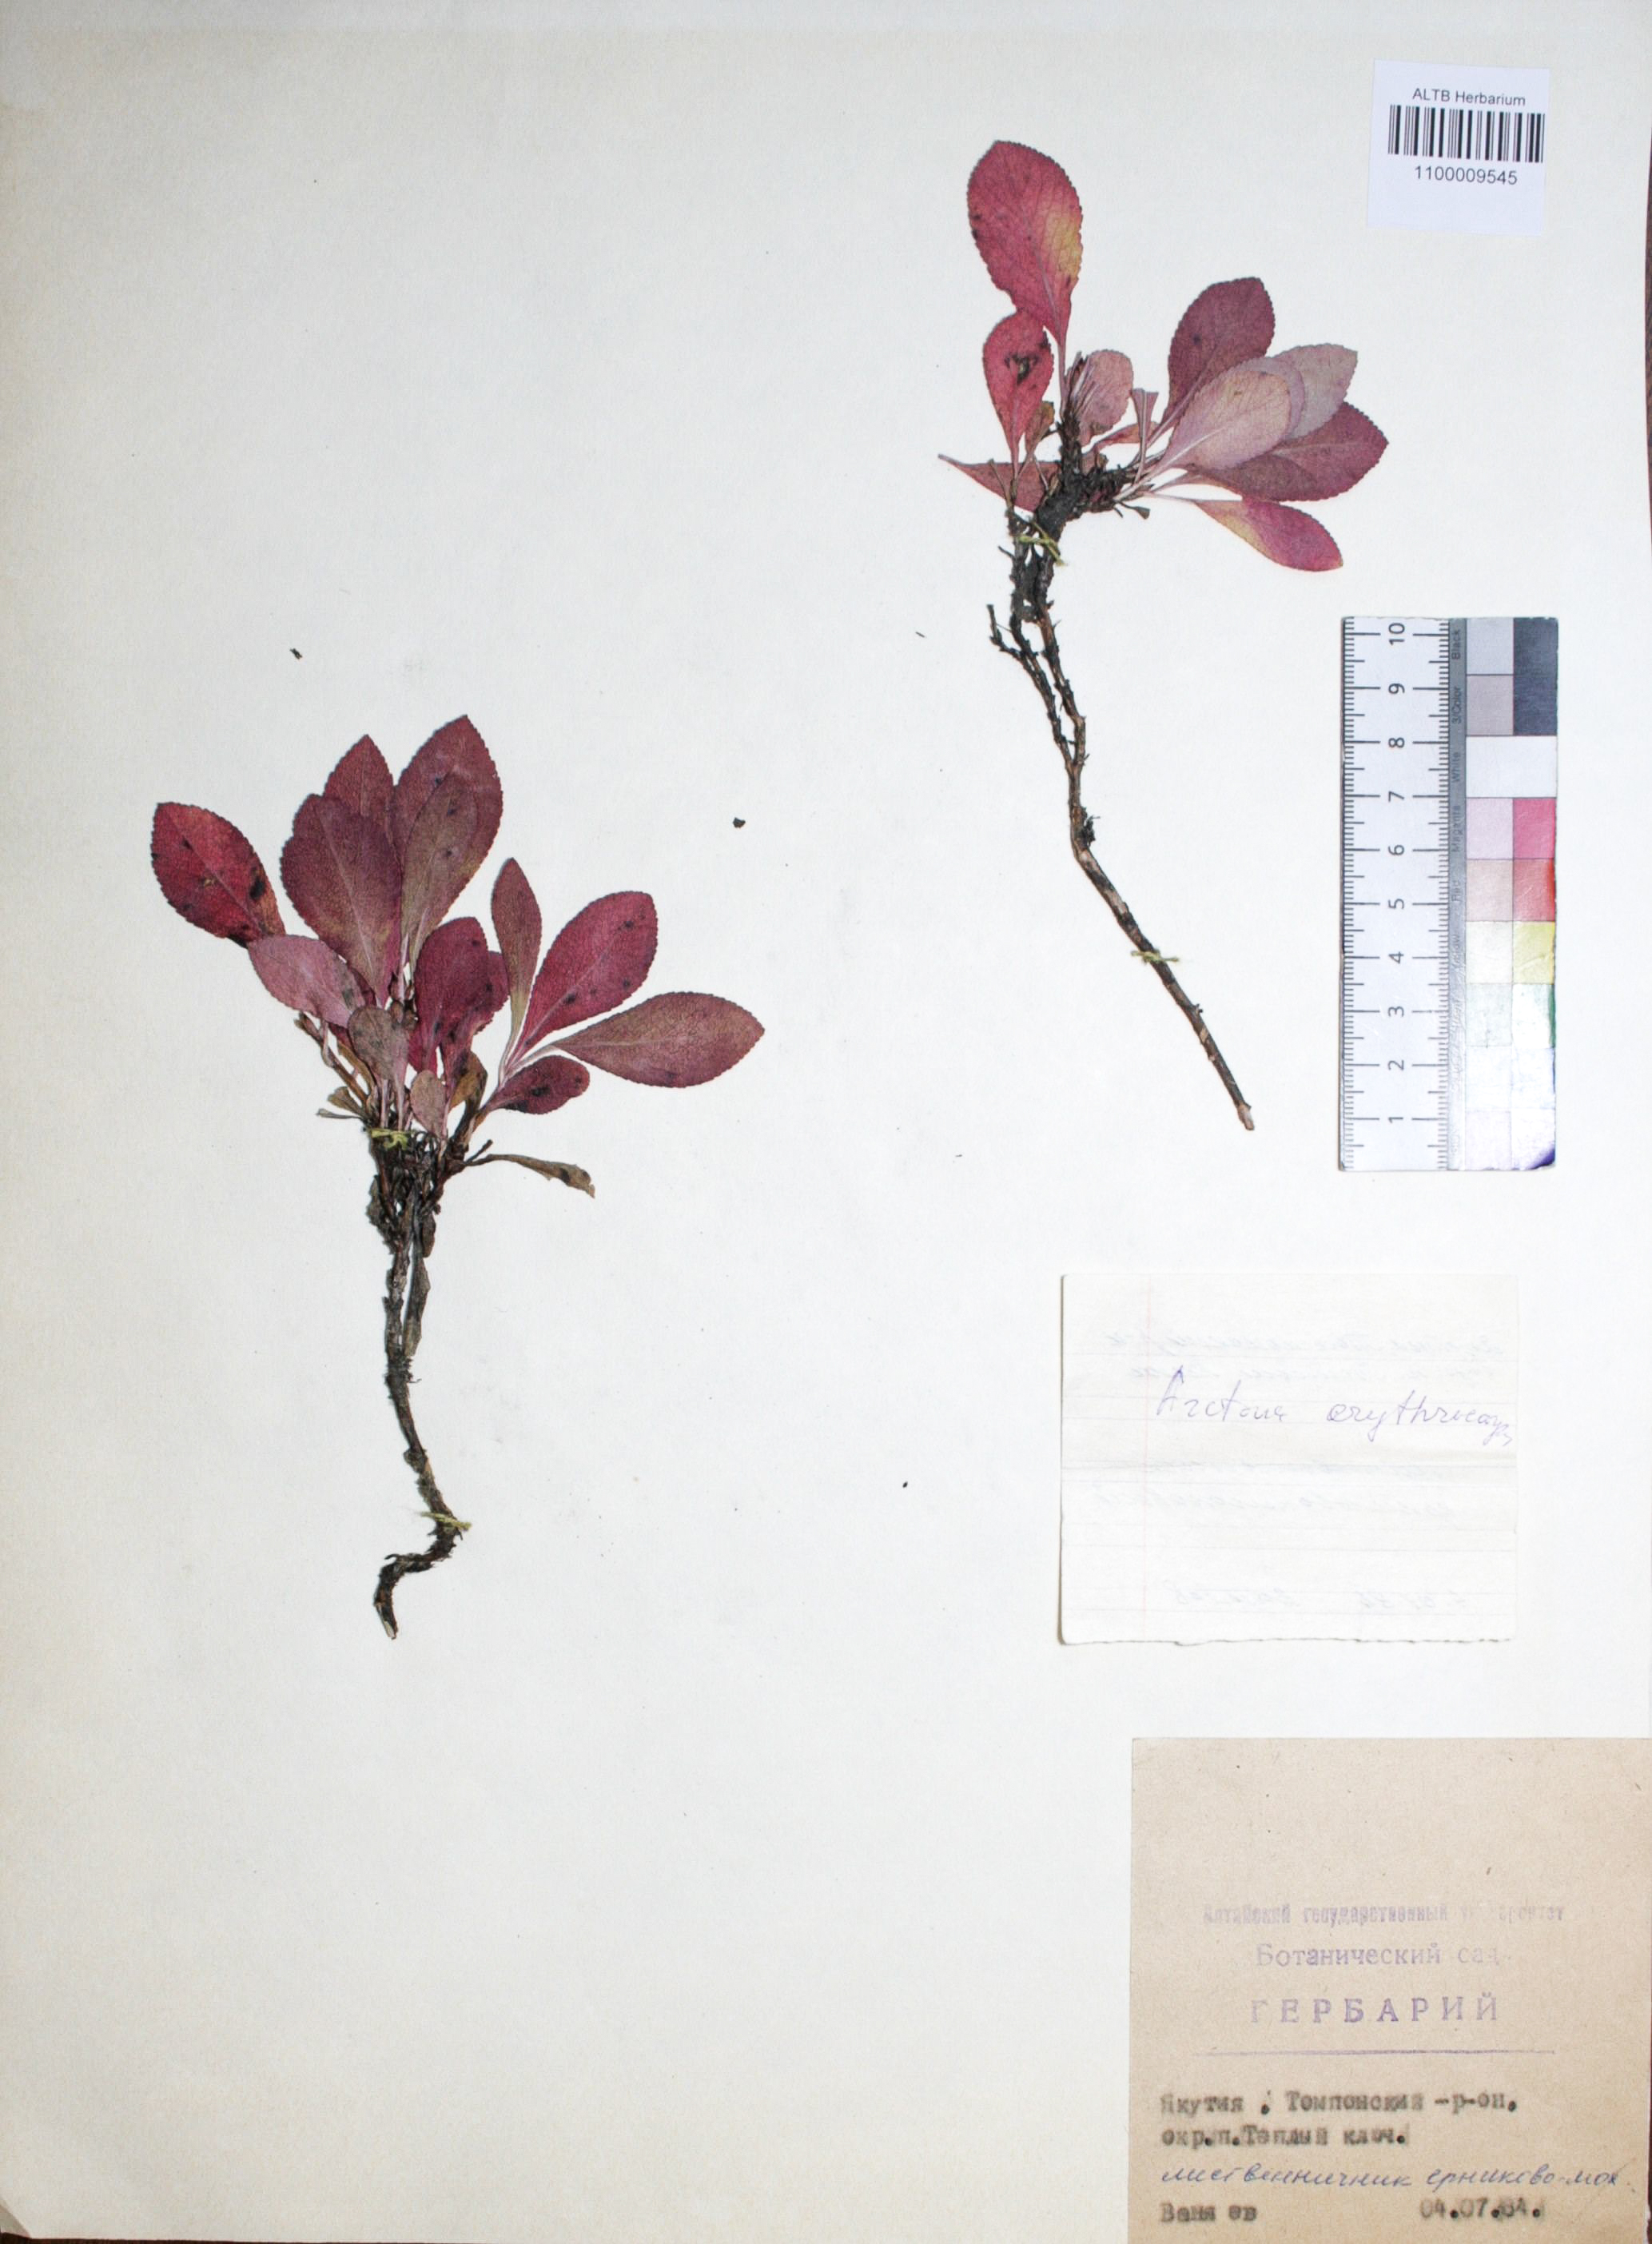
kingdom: Plantae
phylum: Tracheophyta
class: Magnoliopsida
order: Ericales
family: Ericaceae
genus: Arctostaphylos
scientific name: Arctostaphylos rubra
